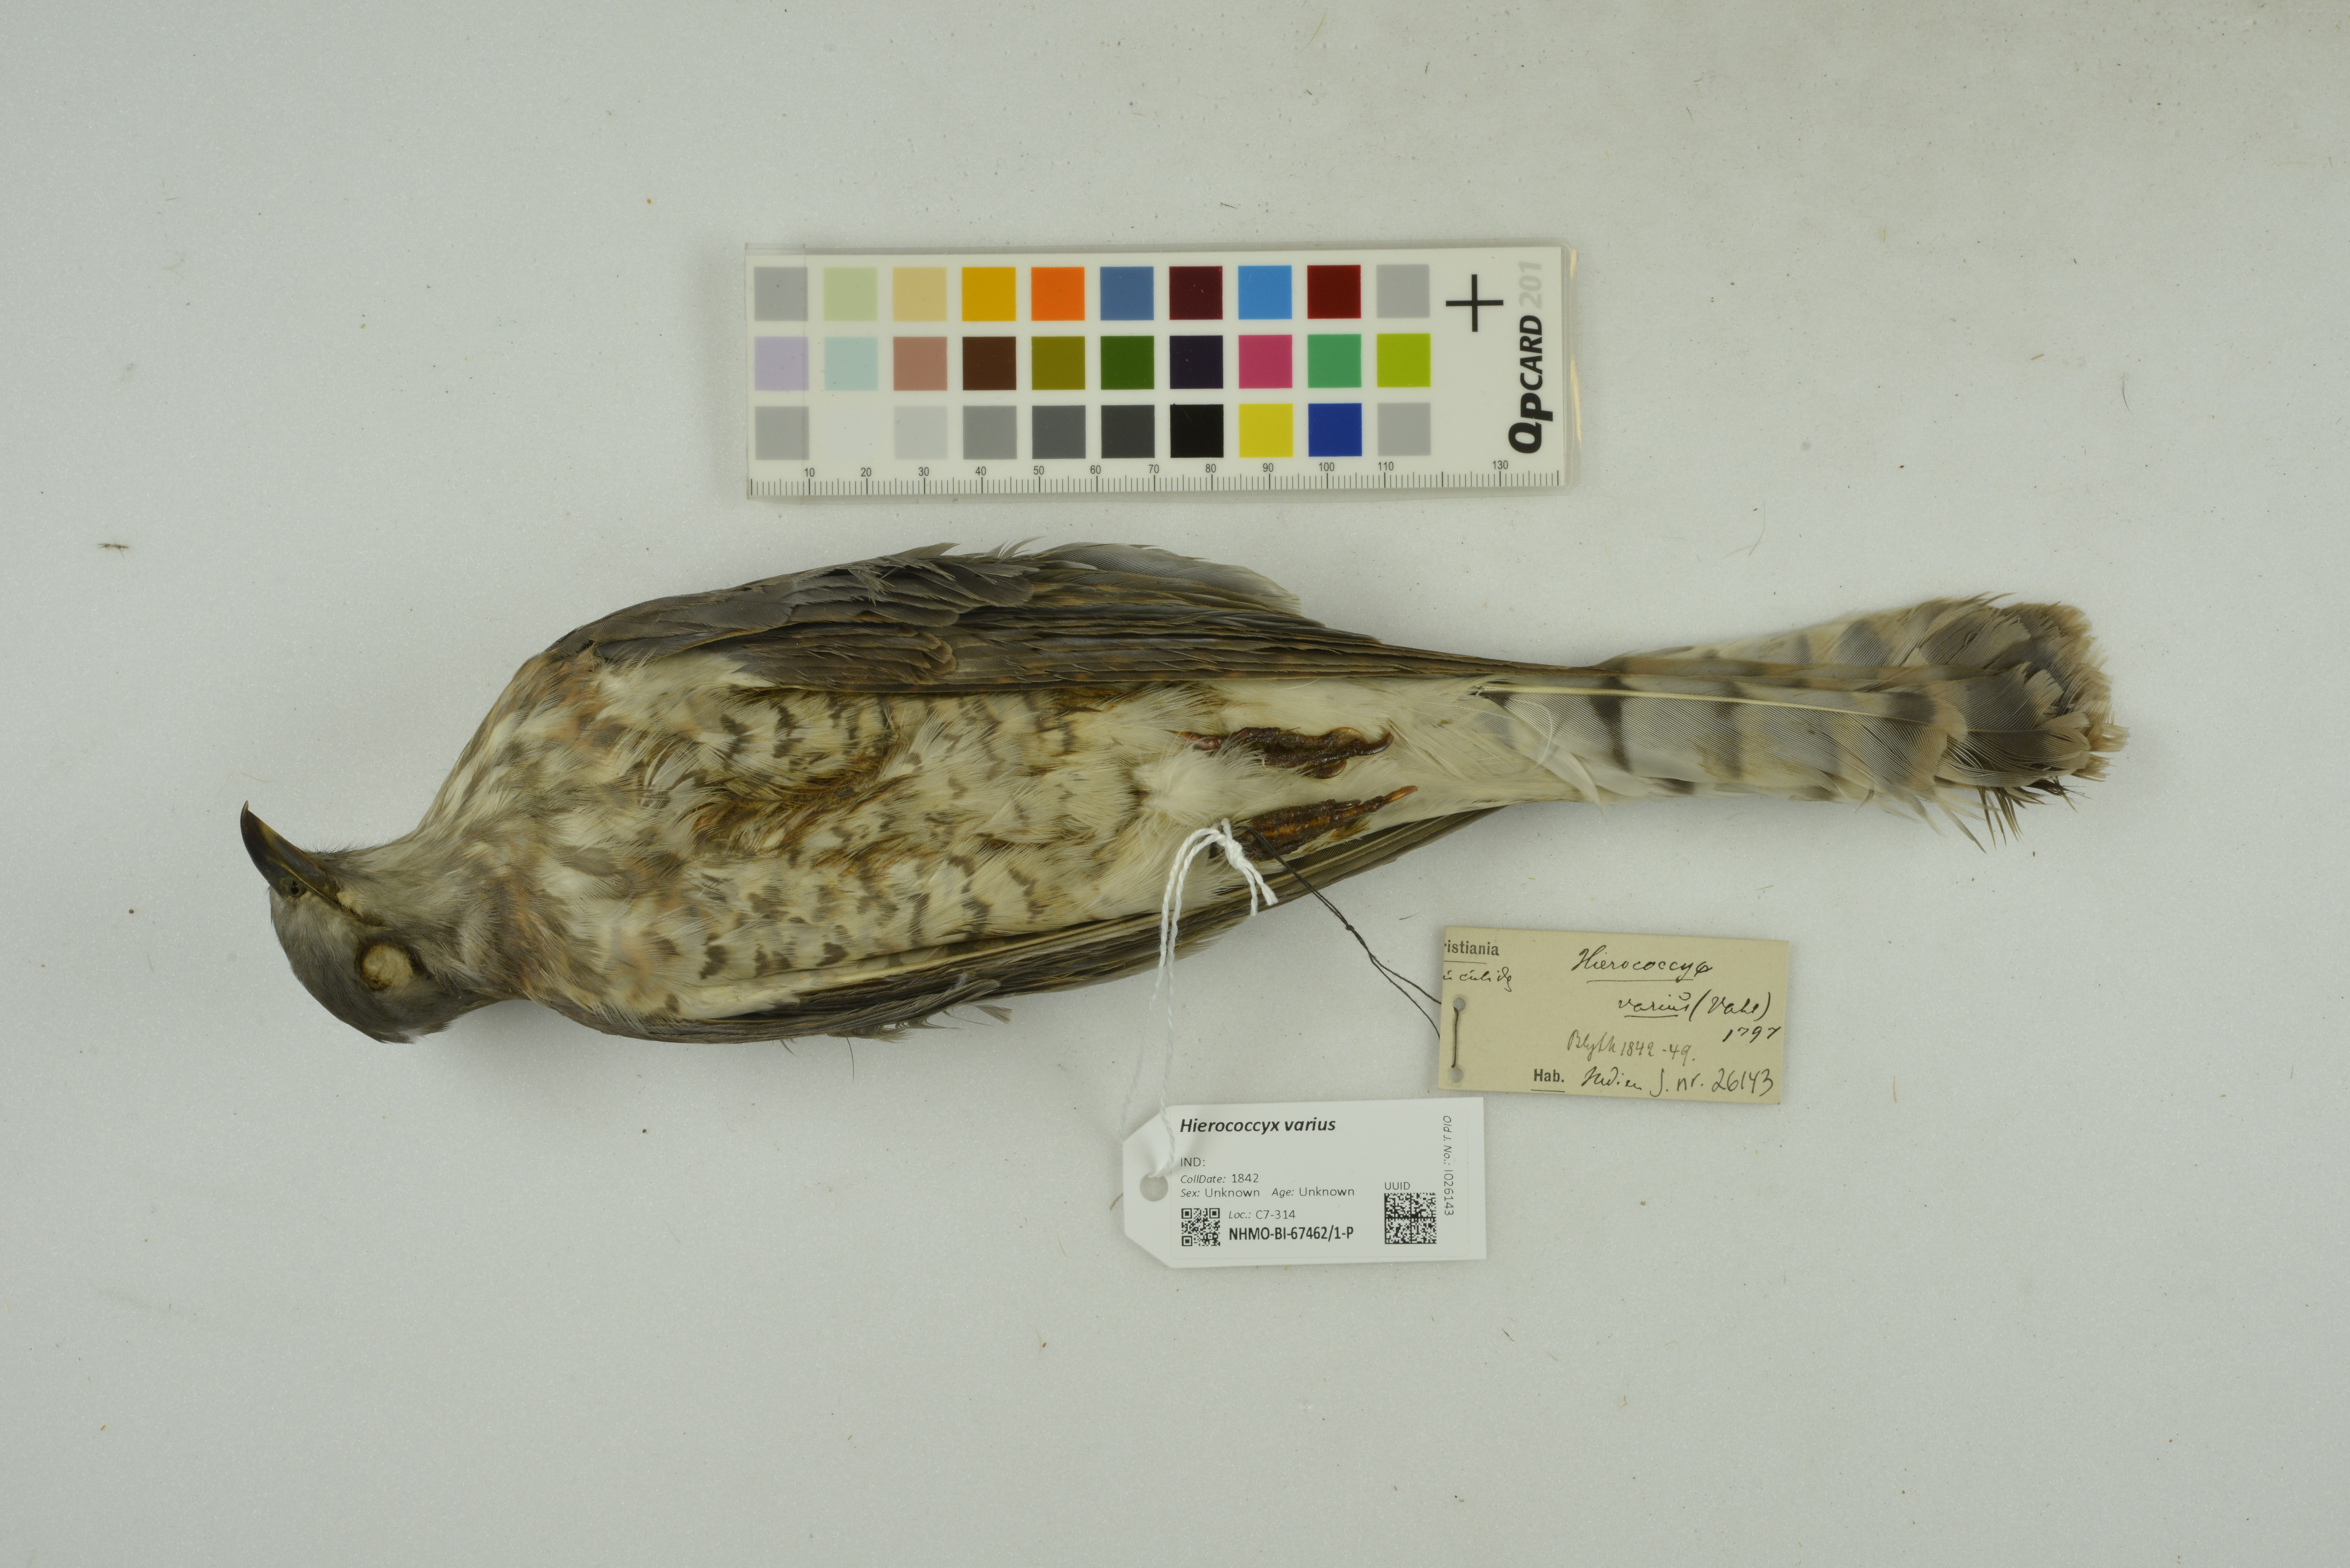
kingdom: Animalia
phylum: Chordata
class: Aves
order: Cuculiformes
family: Cuculidae
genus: Cuculus
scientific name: Cuculus varius
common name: Common hawk cuckoo
